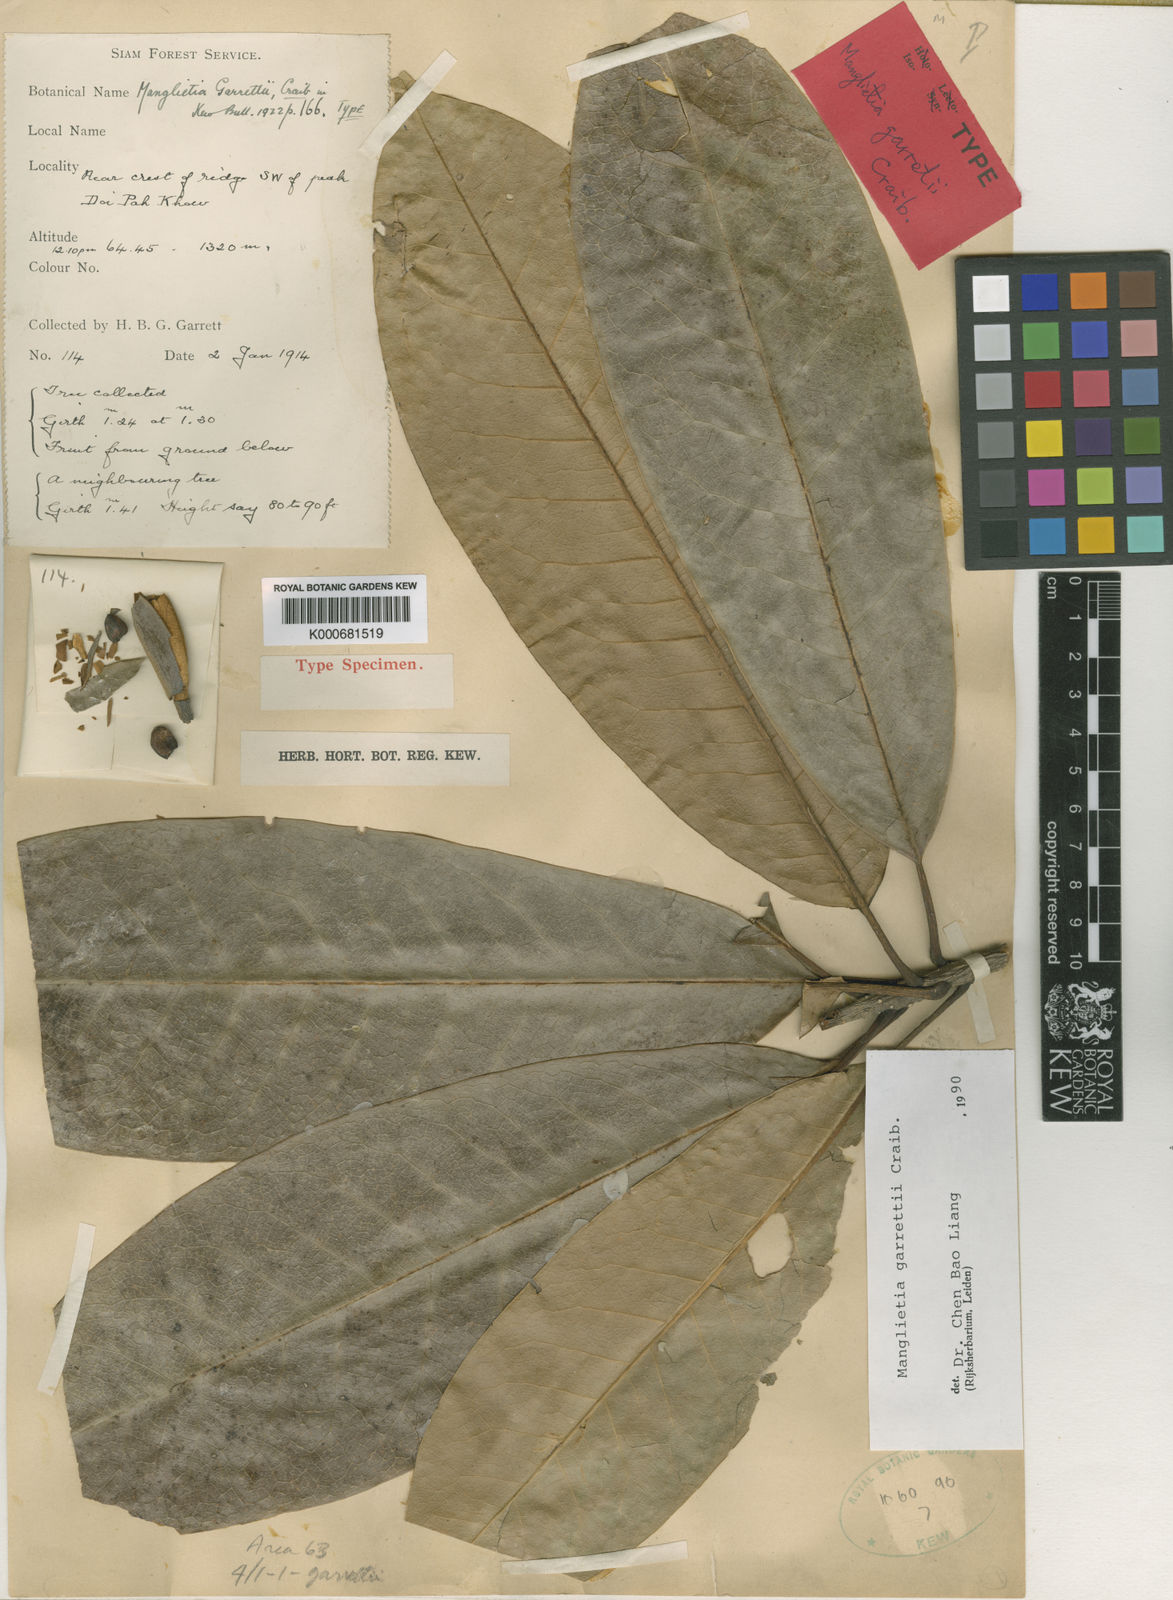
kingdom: Plantae
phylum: Tracheophyta
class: Magnoliopsida
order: Magnoliales
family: Magnoliaceae
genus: Magnolia
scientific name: Magnolia garrettii
